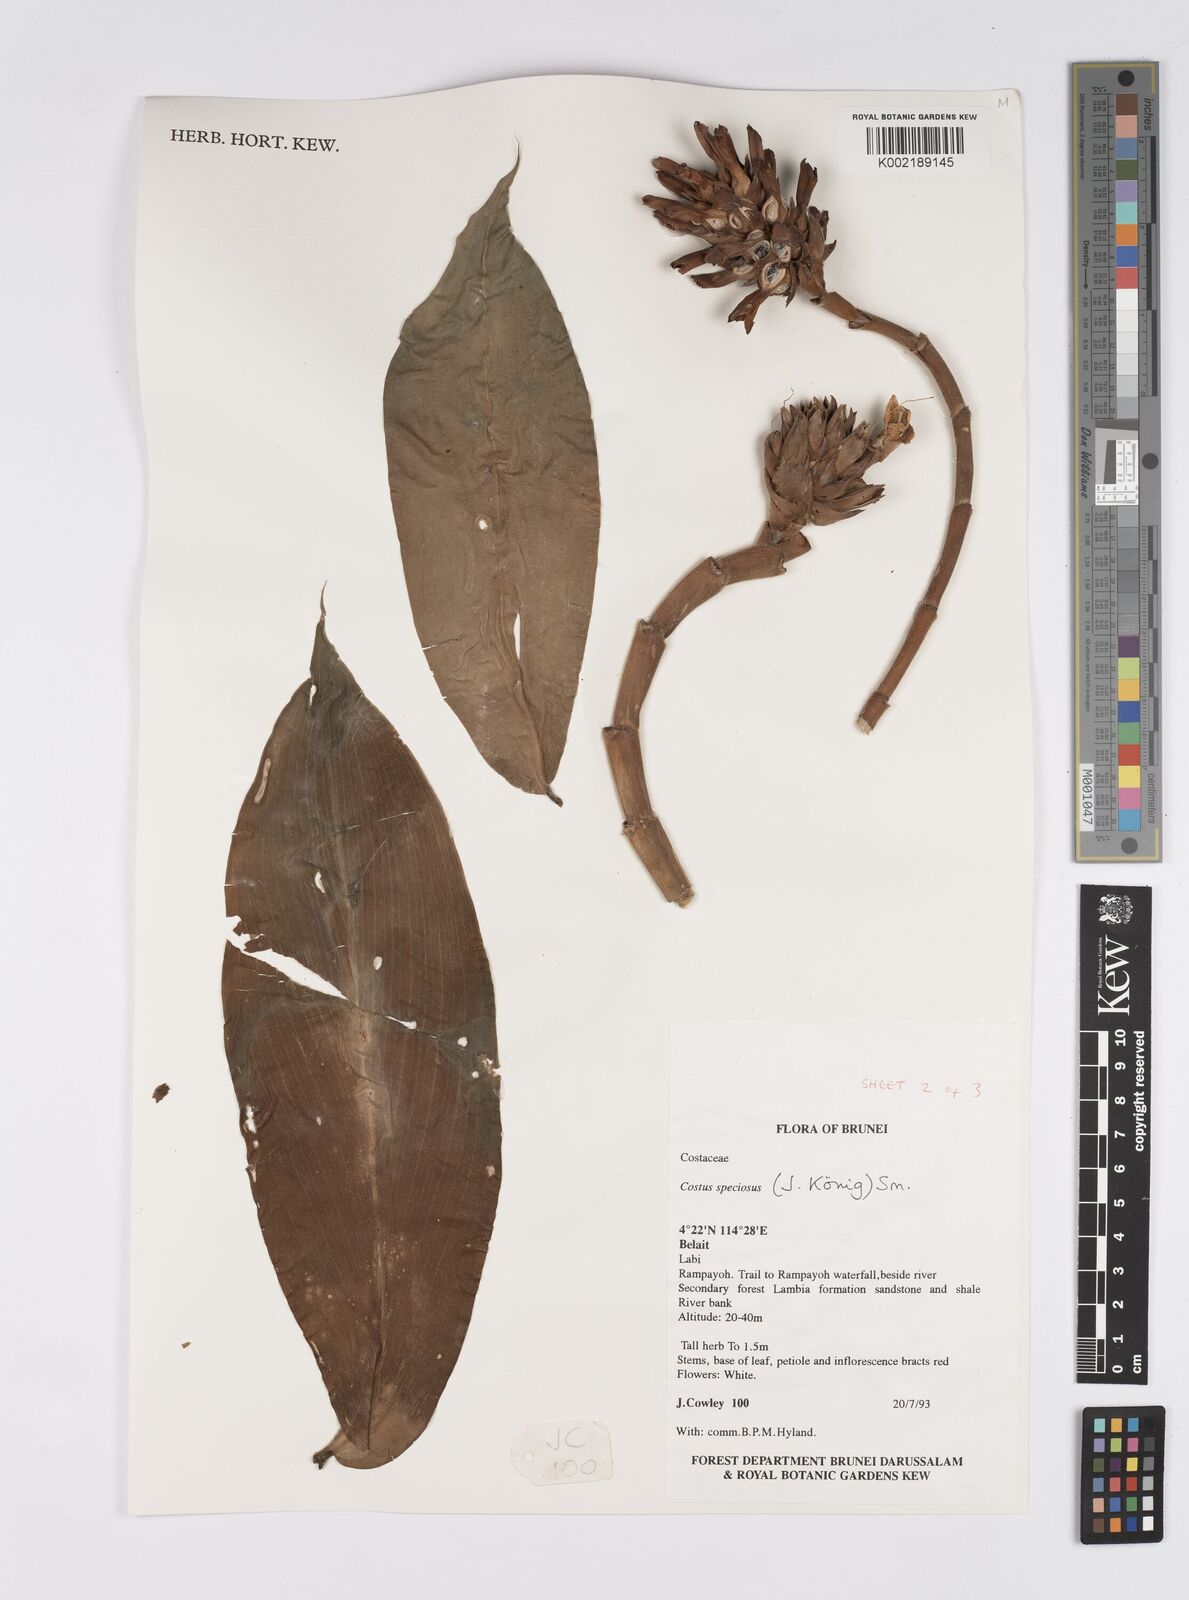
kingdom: Plantae
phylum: Tracheophyta
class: Liliopsida
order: Zingiberales
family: Costaceae
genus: Hellenia
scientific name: Hellenia speciosa
